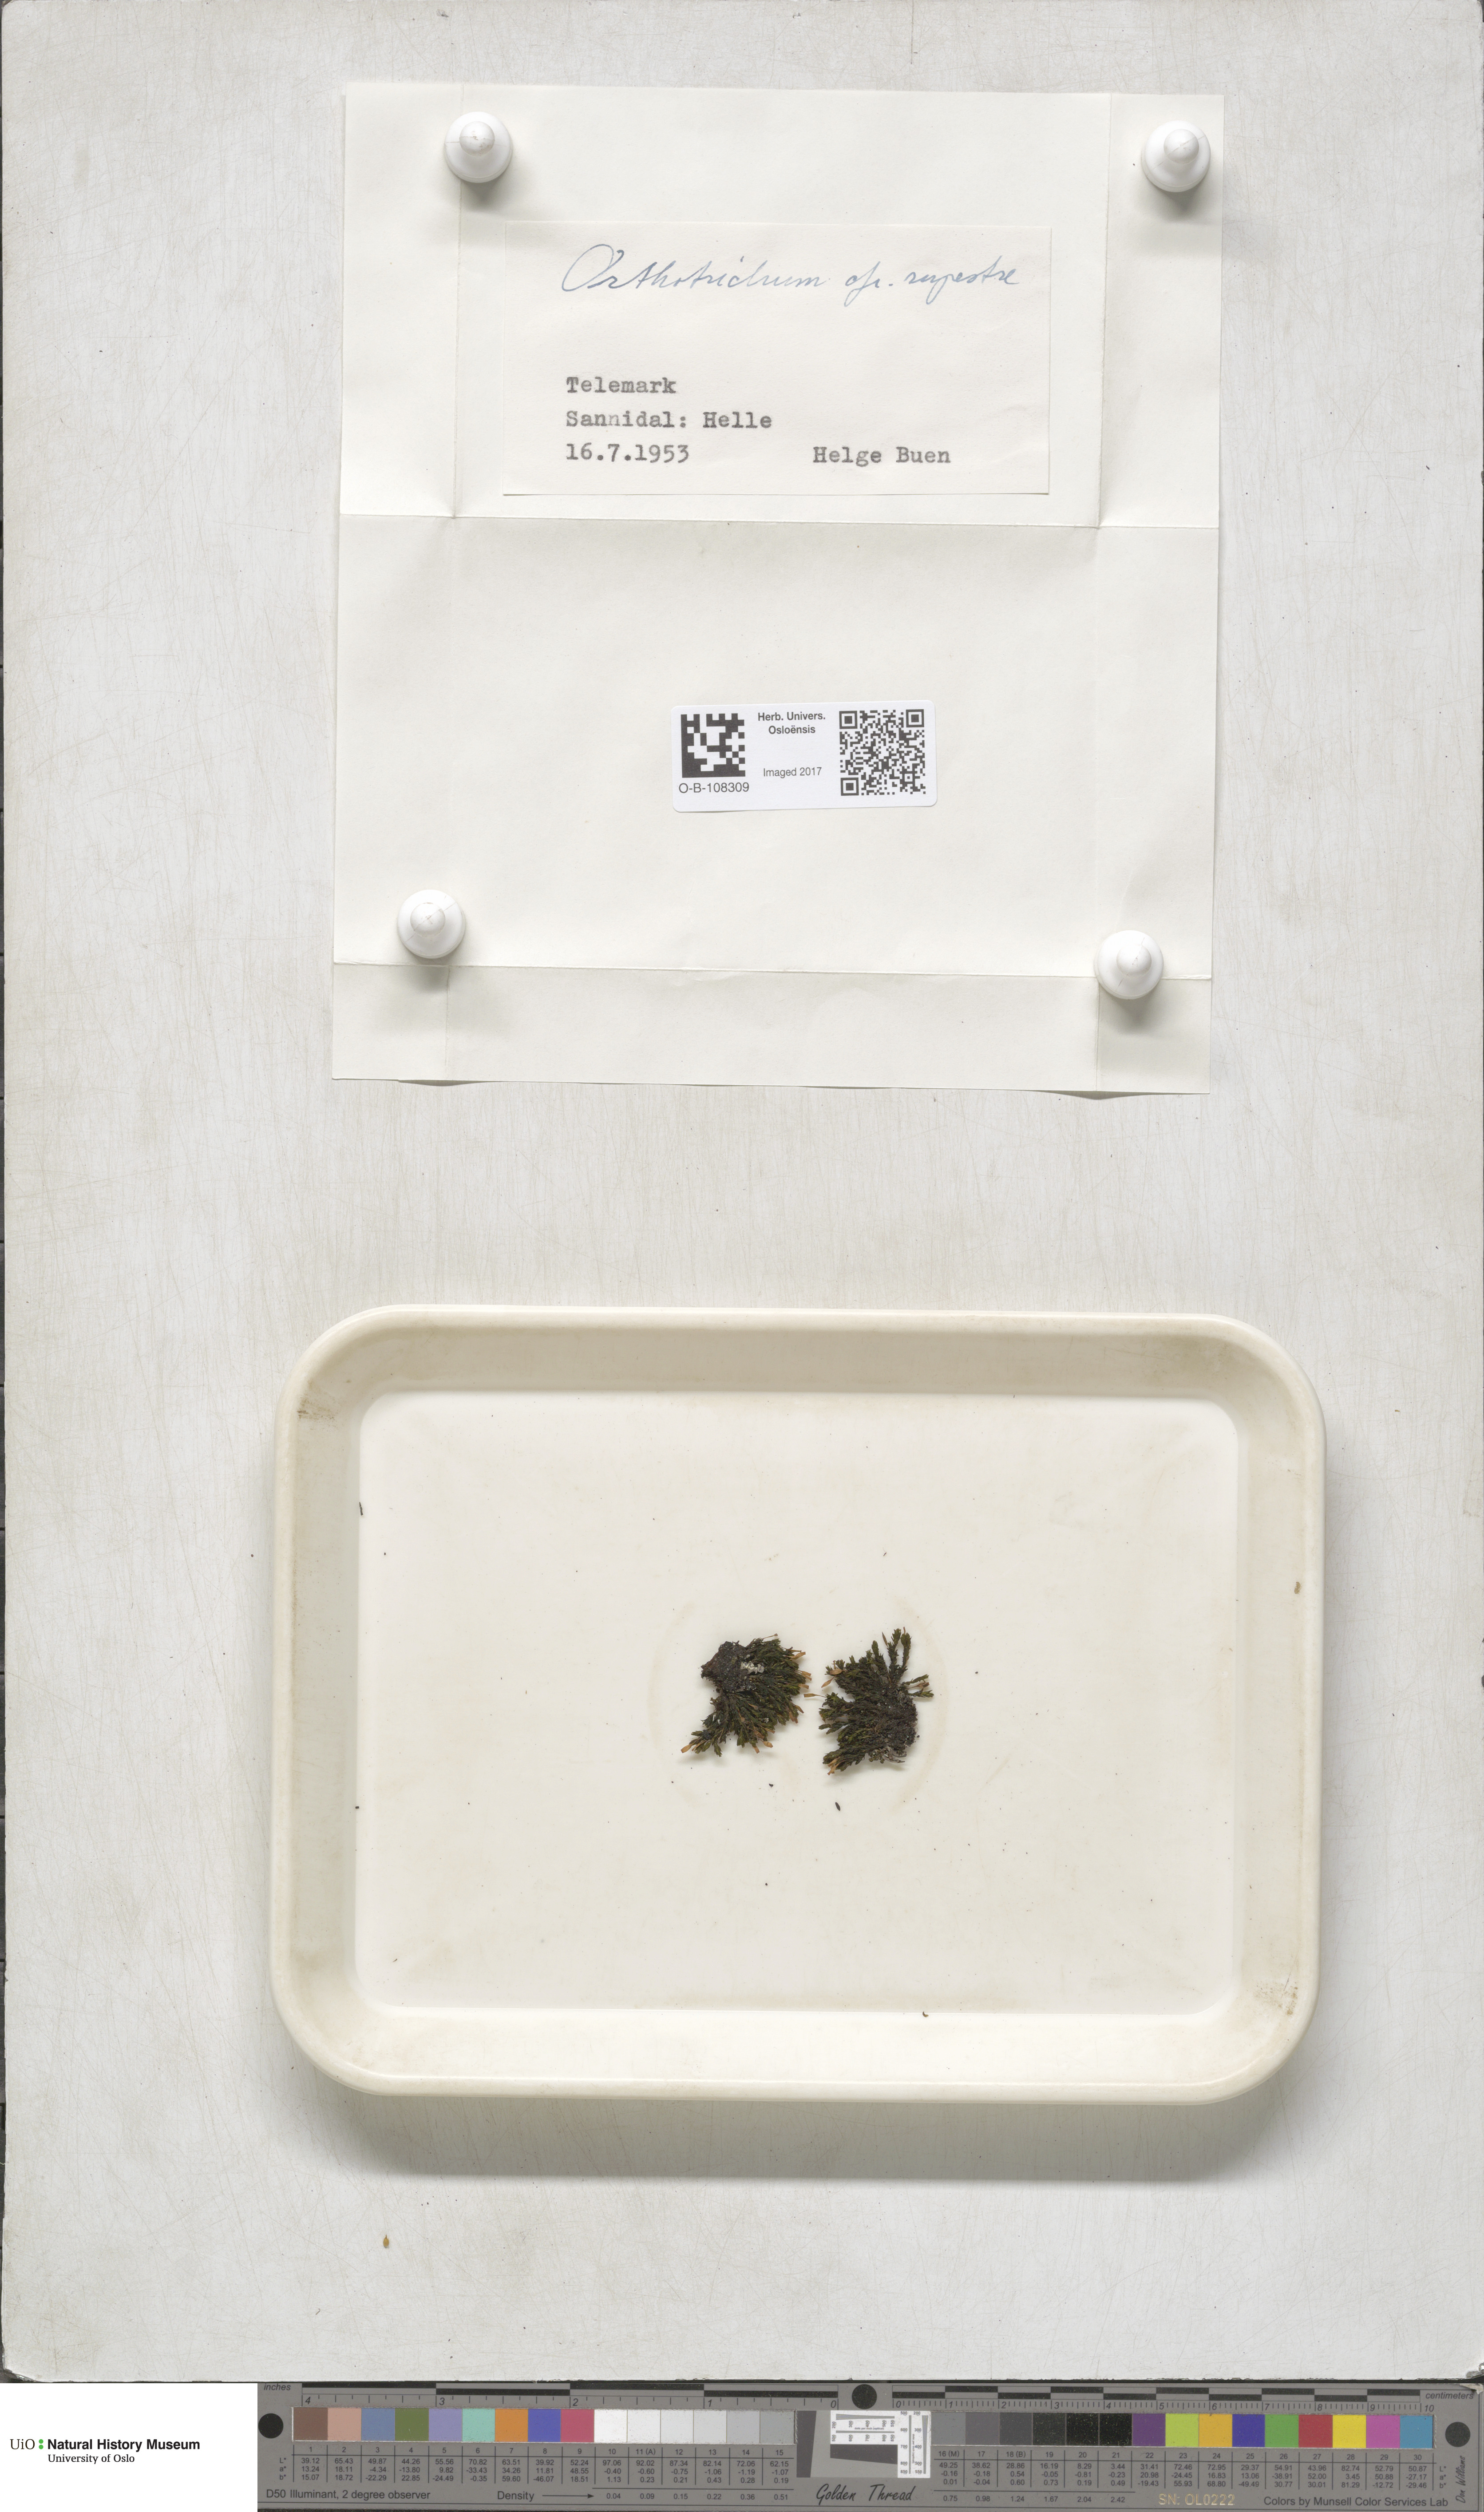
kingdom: Plantae
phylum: Bryophyta
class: Bryopsida
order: Orthotrichales
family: Orthotrichaceae
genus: Lewinskya
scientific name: Lewinskya rupestris
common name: Rock bristle-moss
